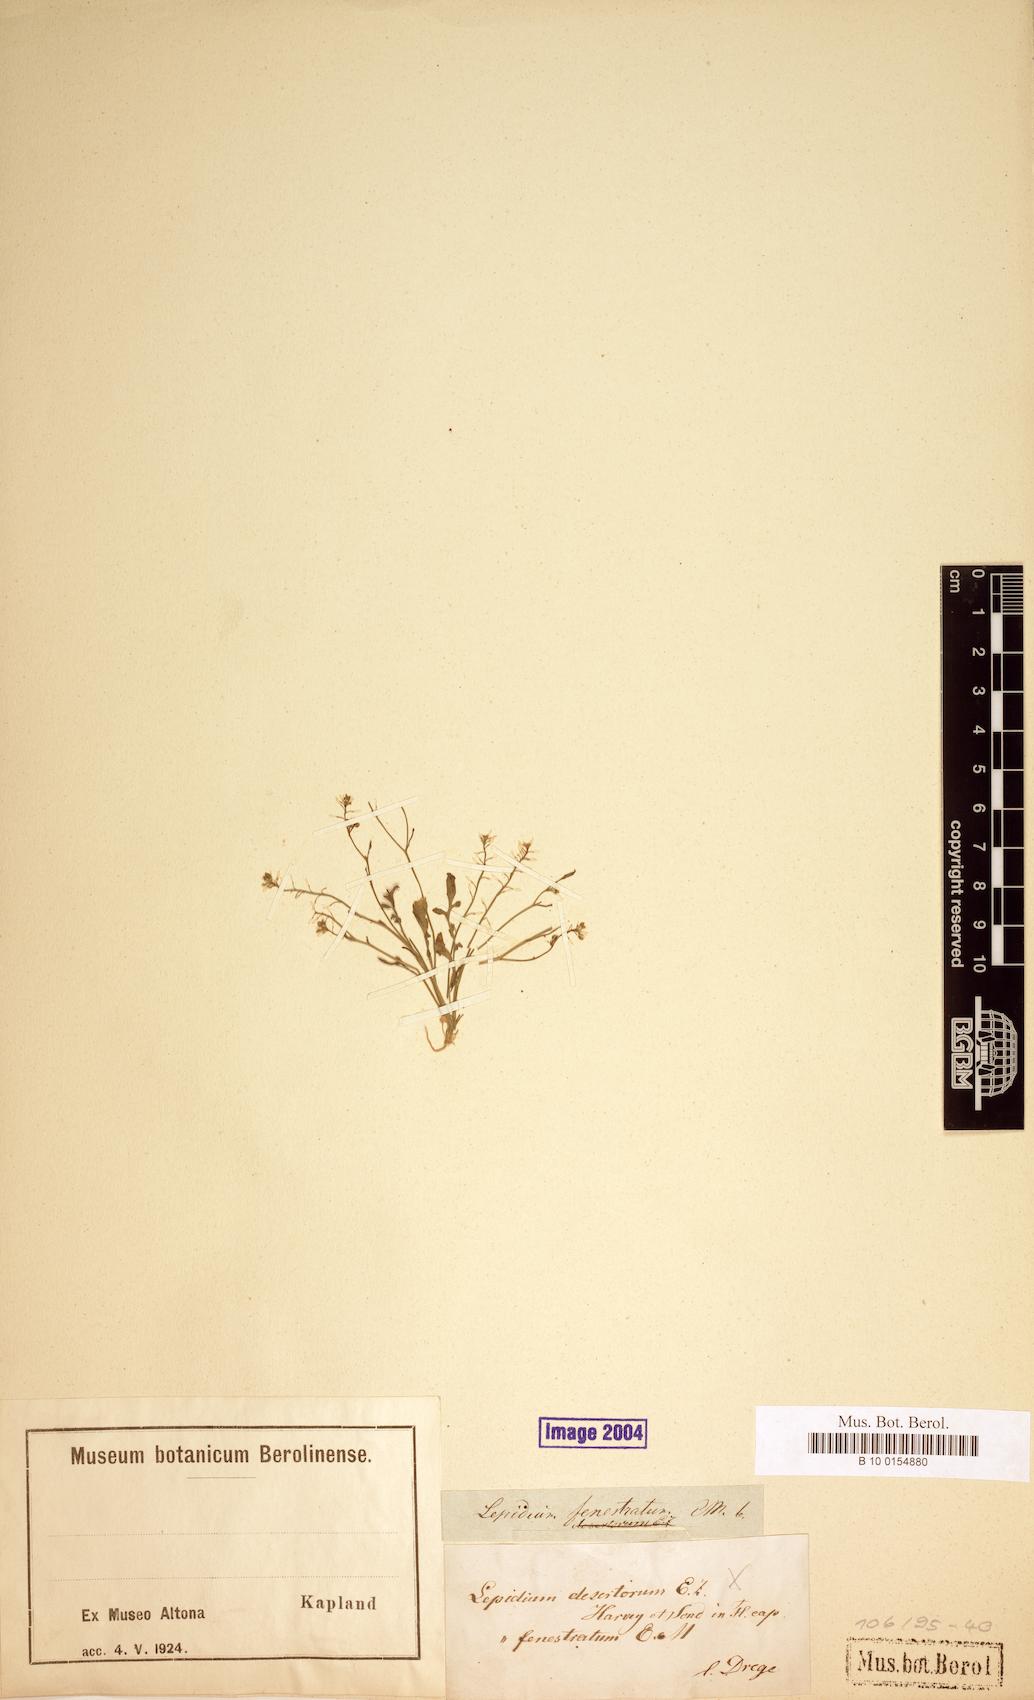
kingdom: Plantae
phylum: Tracheophyta
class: Magnoliopsida
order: Brassicales
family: Brassicaceae
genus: Lepidium
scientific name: Lepidium desertorum
